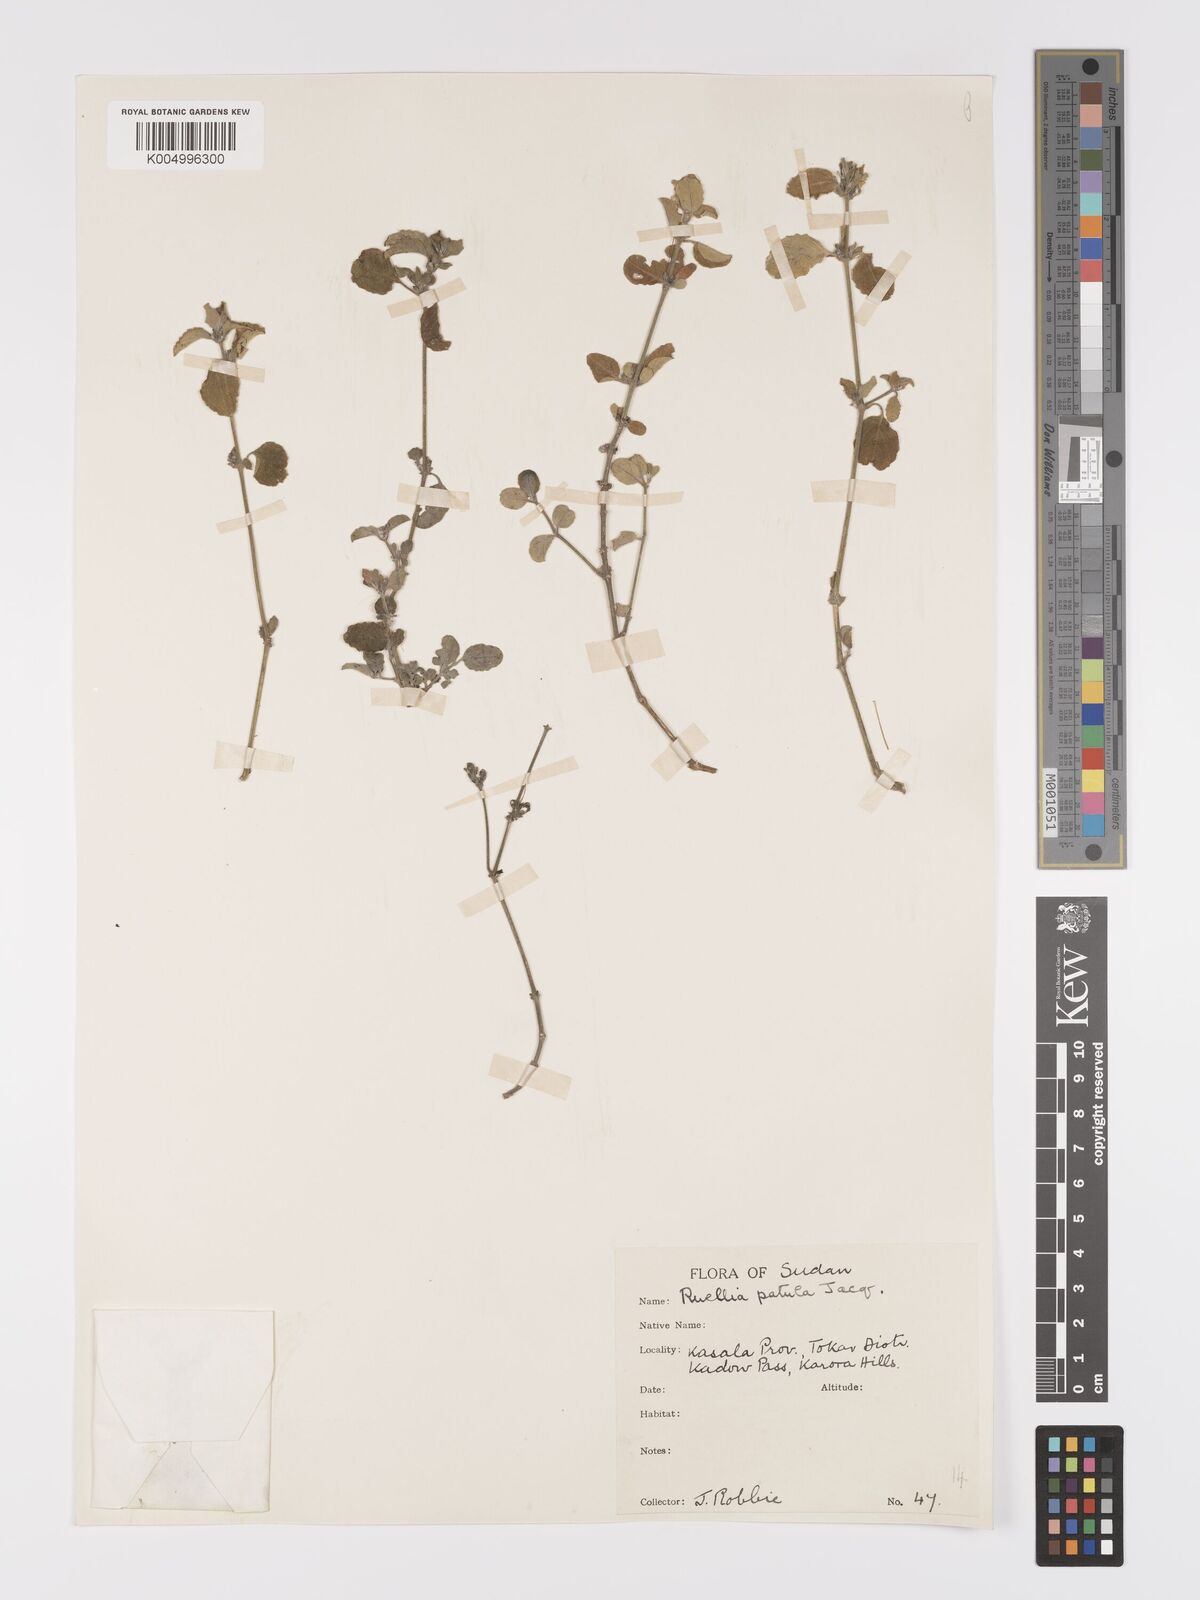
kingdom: Plantae
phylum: Tracheophyta
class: Magnoliopsida
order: Lamiales
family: Acanthaceae
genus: Ruellia
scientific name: Ruellia patula
